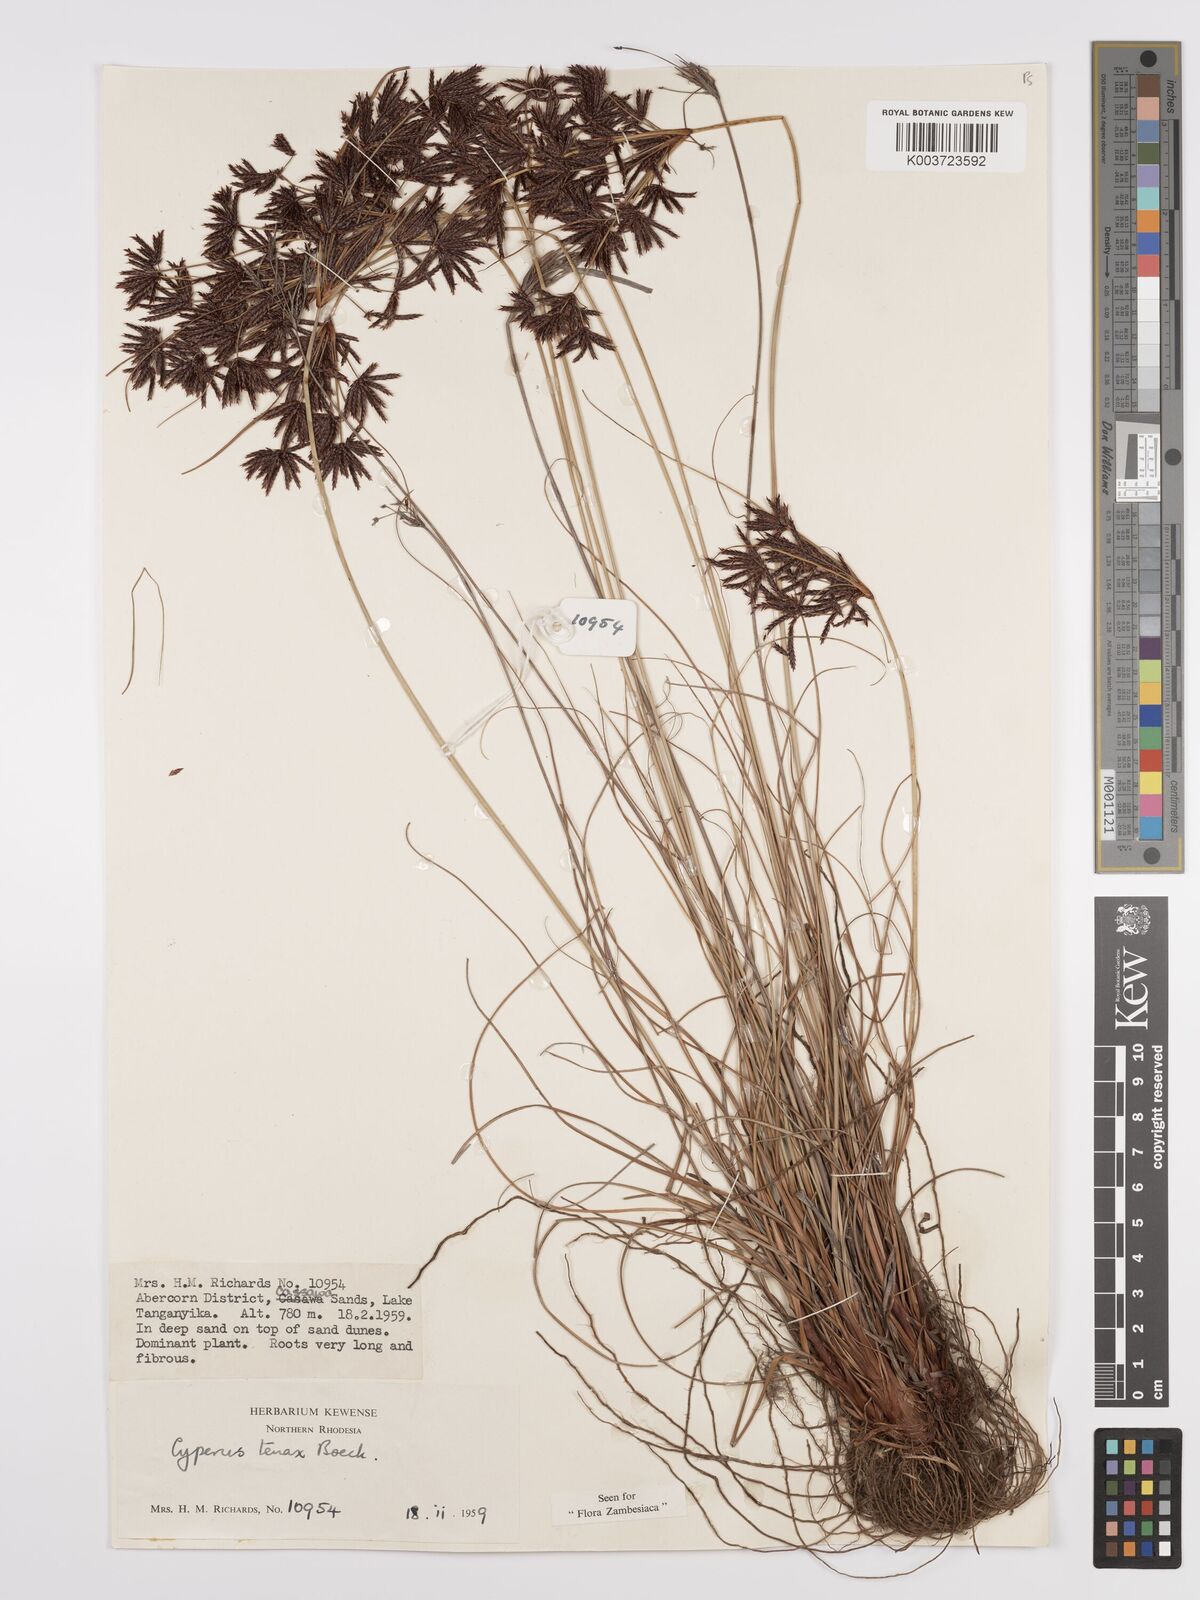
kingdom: Plantae
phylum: Tracheophyta
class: Liliopsida
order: Poales
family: Cyperaceae
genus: Cyperus
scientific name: Cyperus tenax
